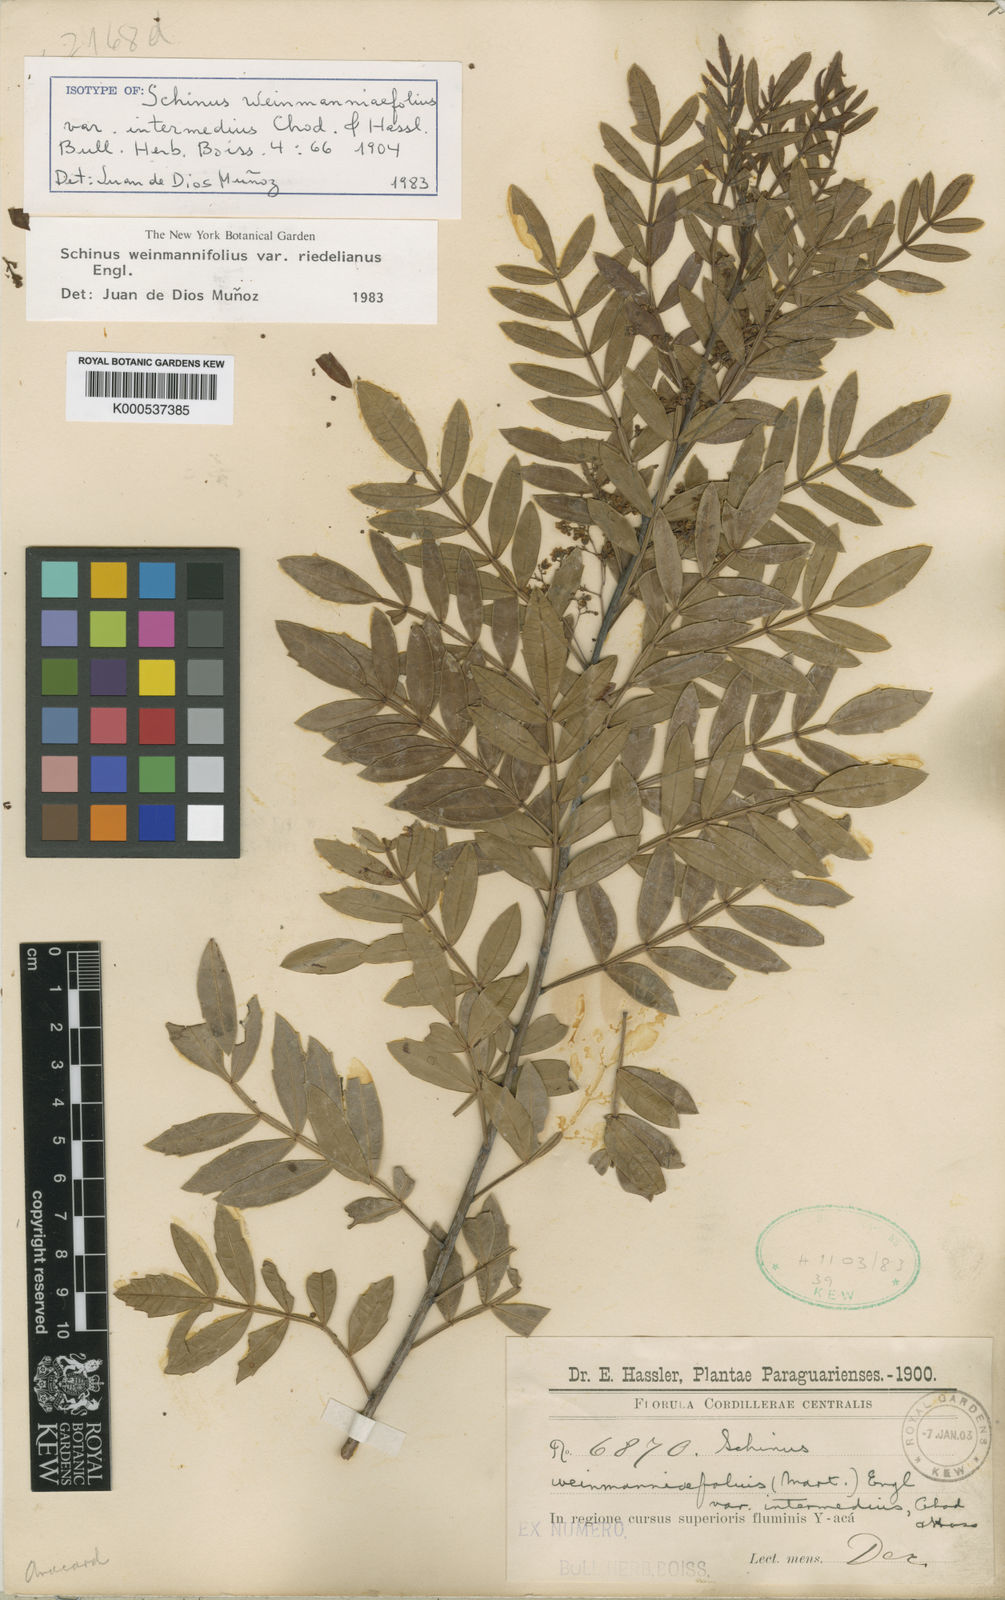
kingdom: Plantae
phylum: Tracheophyta
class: Magnoliopsida
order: Sapindales
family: Anacardiaceae
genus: Schinus
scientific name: Schinus
